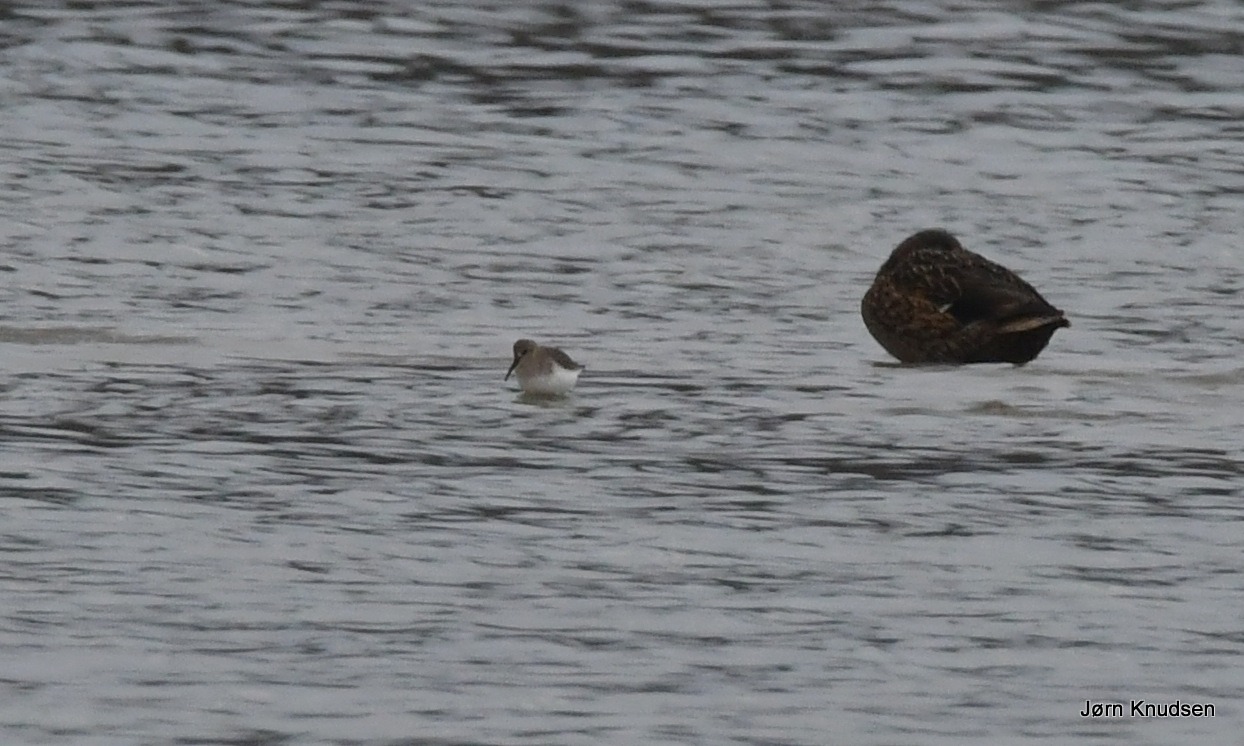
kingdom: Animalia
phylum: Chordata
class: Aves
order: Charadriiformes
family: Scolopacidae
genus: Calidris
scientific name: Calidris alpina
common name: Almindelig ryle
